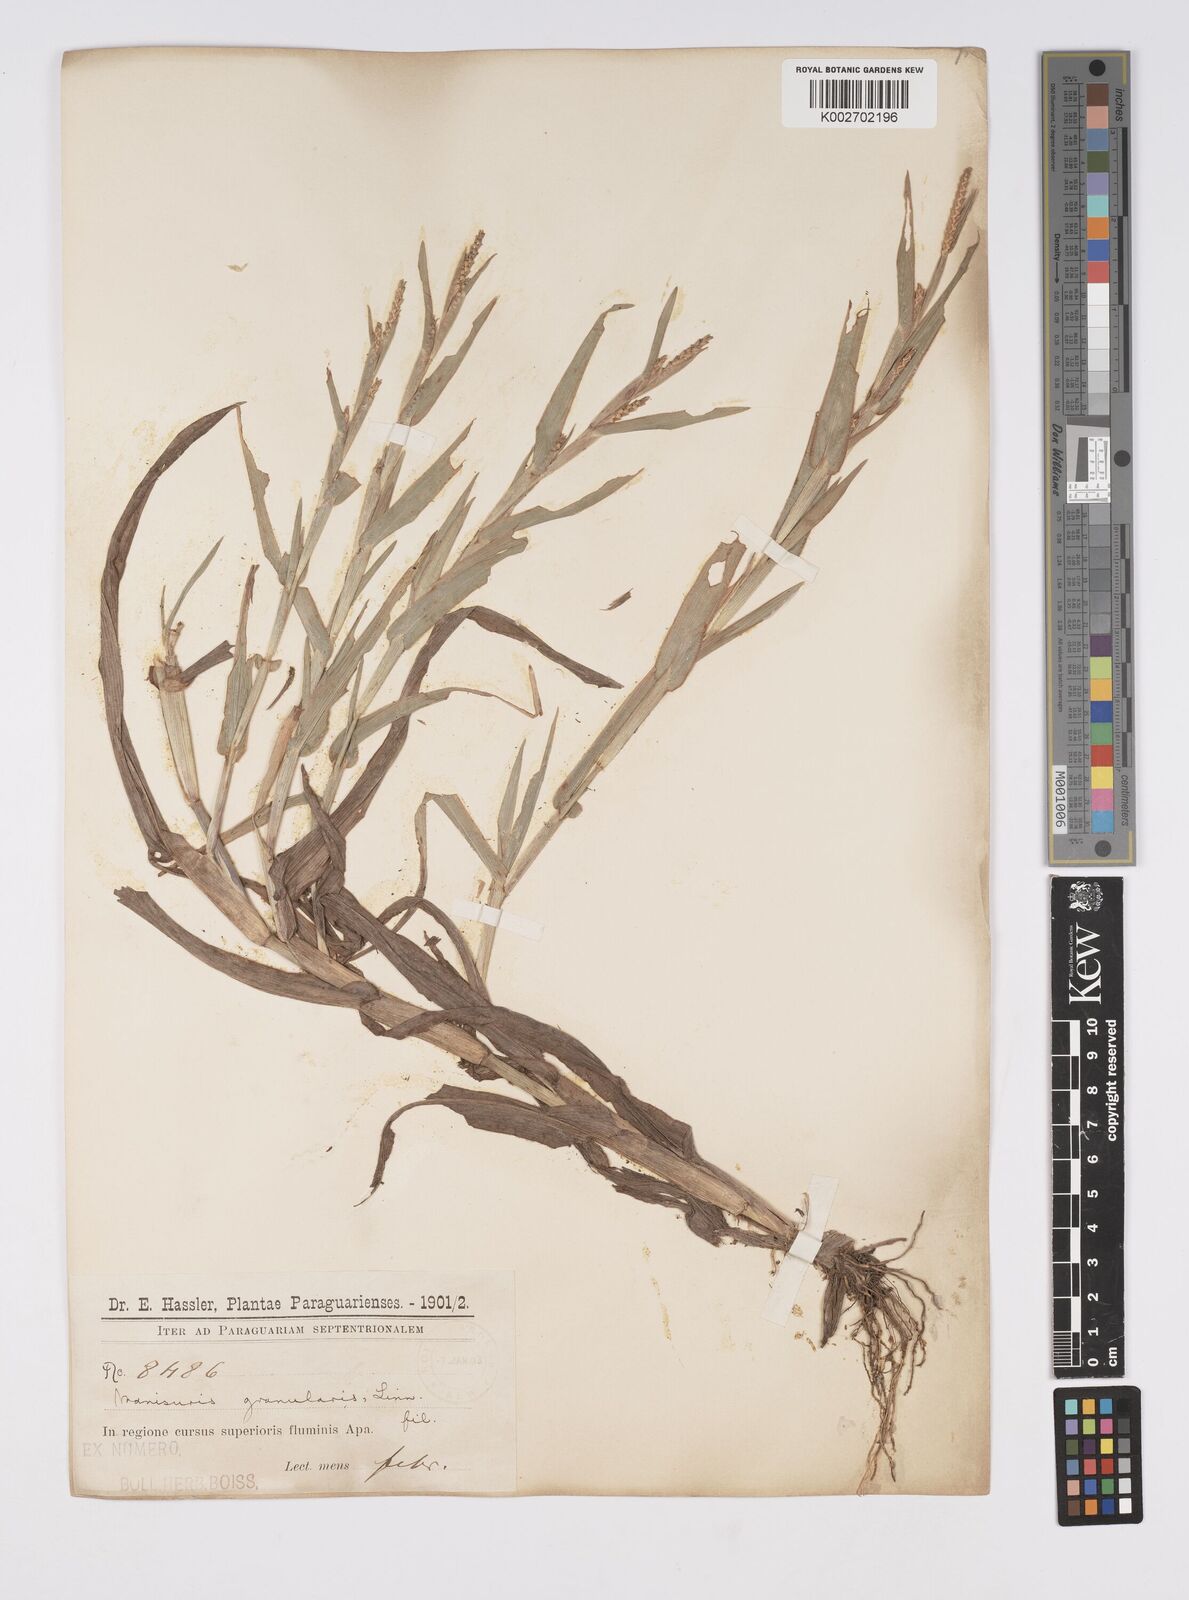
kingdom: Plantae
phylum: Tracheophyta
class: Liliopsida
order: Poales
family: Poaceae
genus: Hackelochloa
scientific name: Hackelochloa granularis
